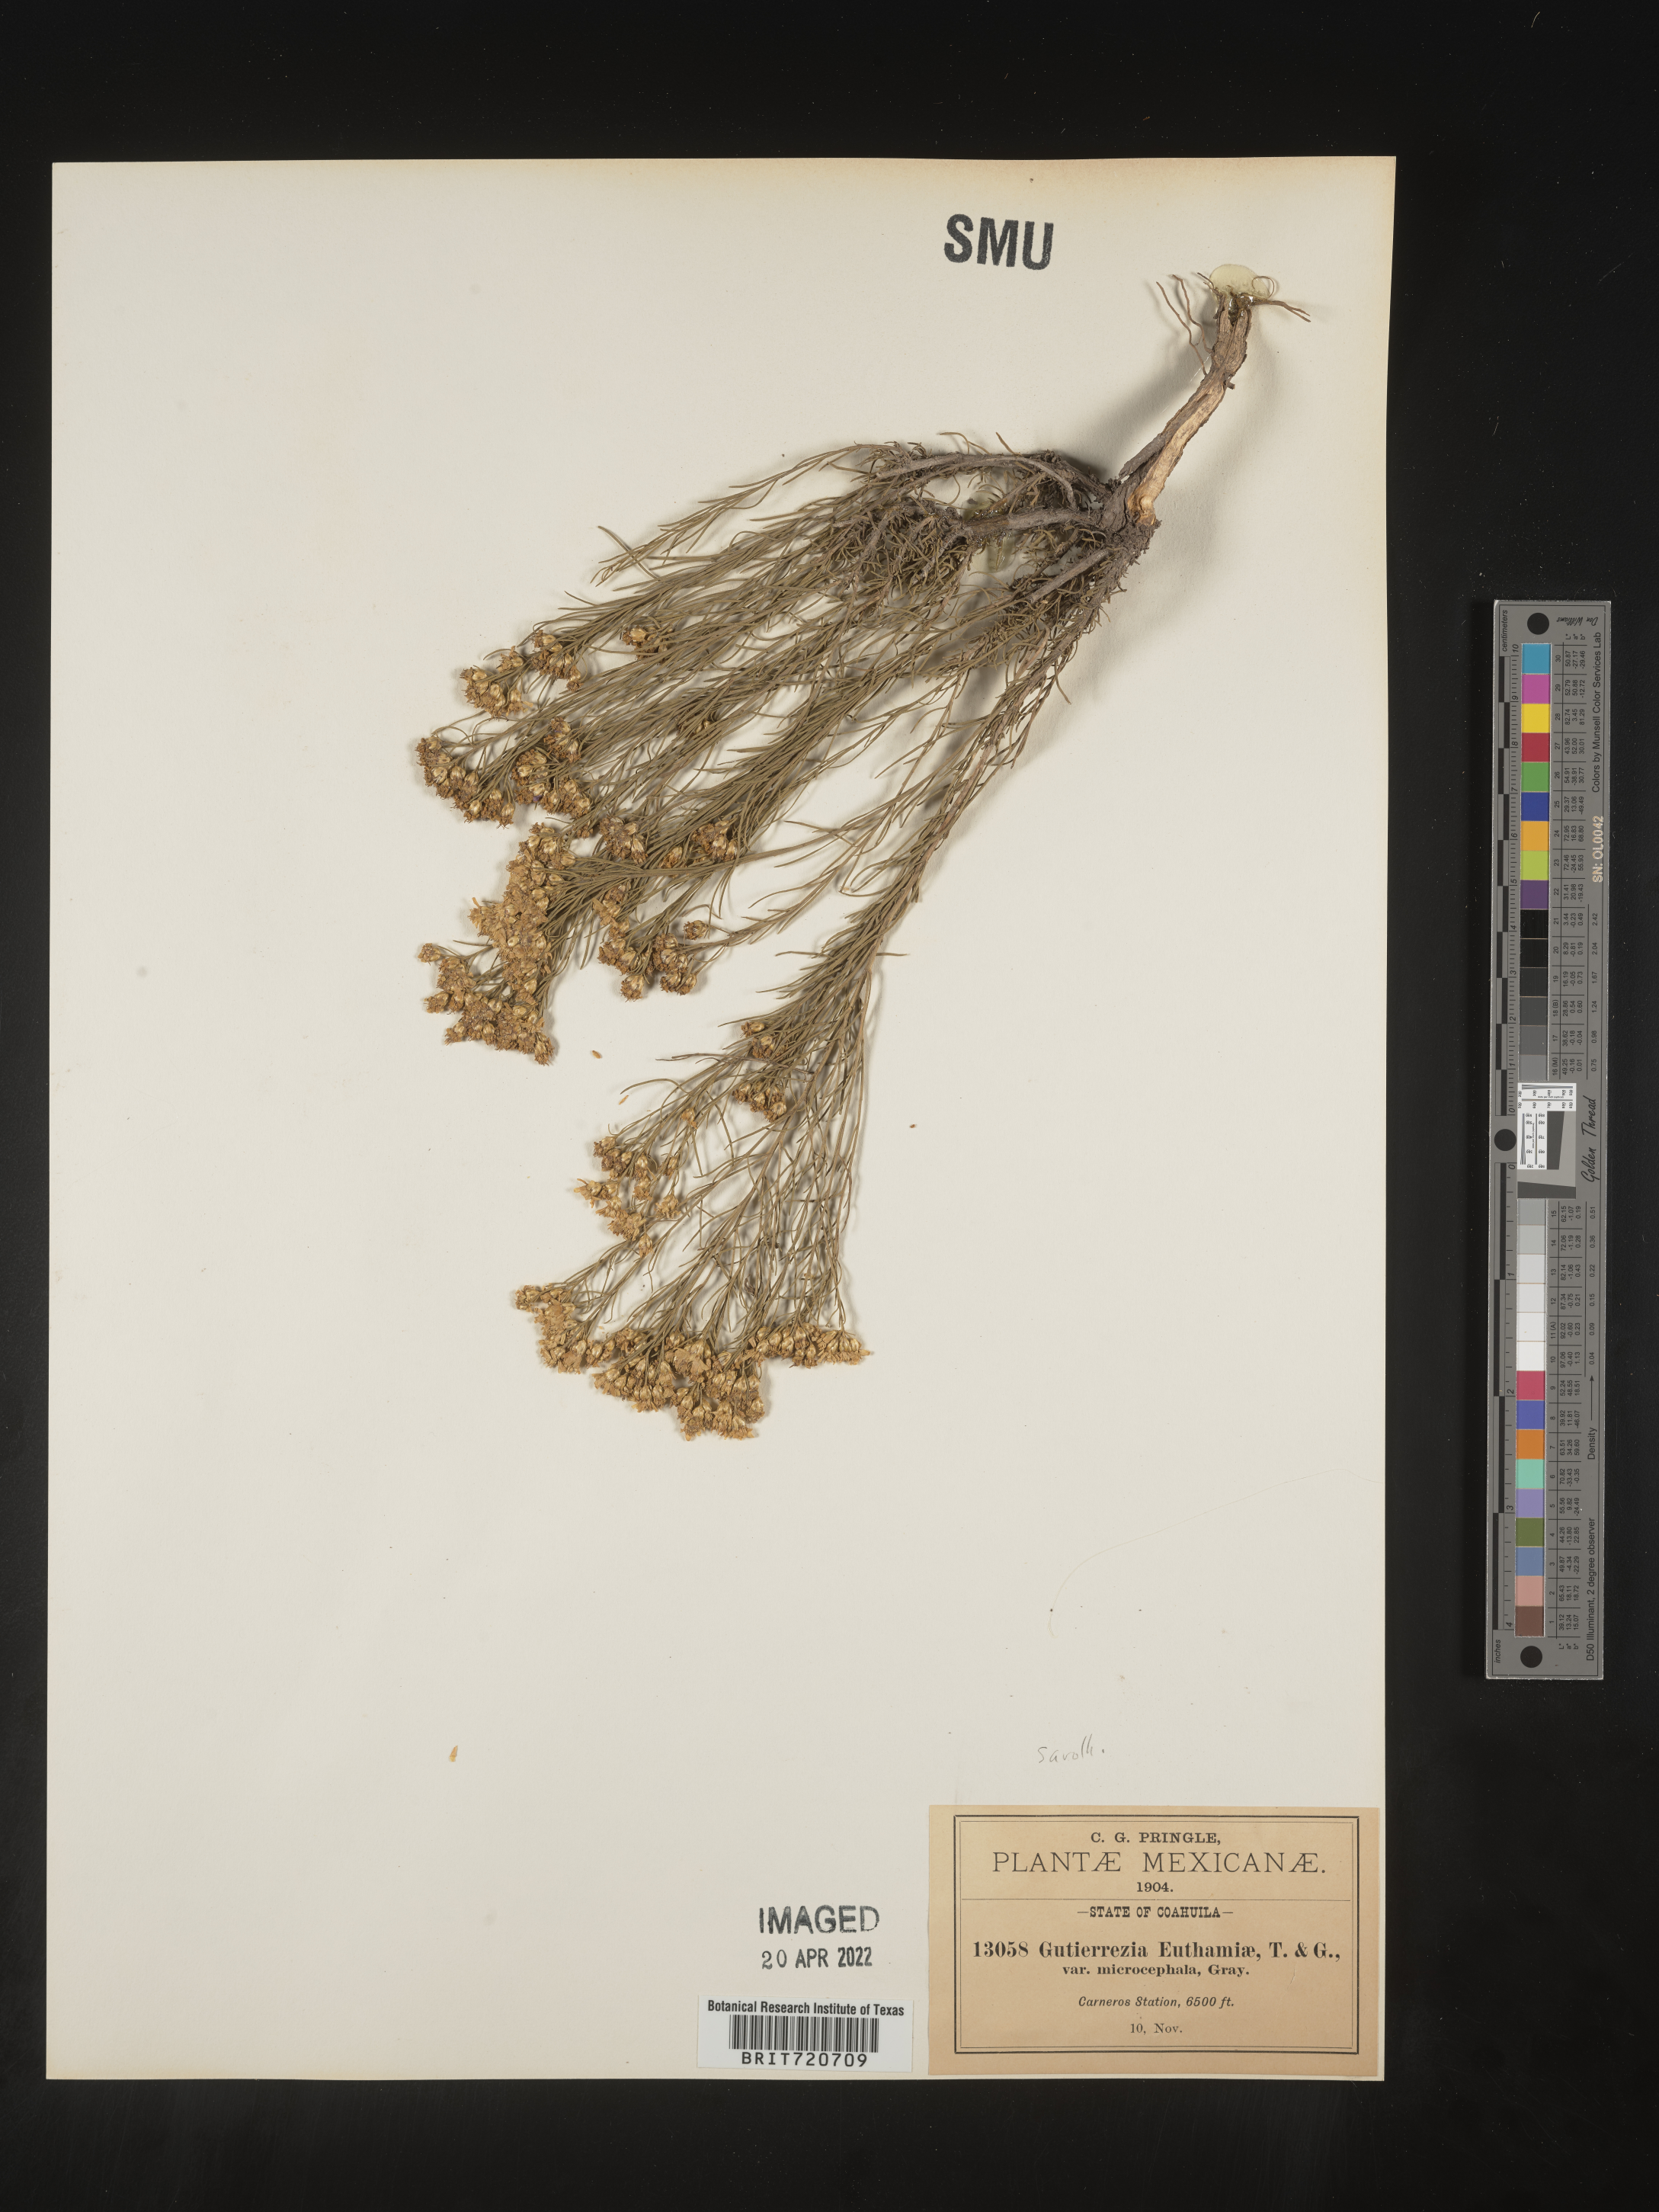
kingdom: Plantae
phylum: Tracheophyta
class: Magnoliopsida
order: Asterales
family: Asteraceae
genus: Gutierrezia
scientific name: Gutierrezia sarothrae
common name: Broom snakeweed
